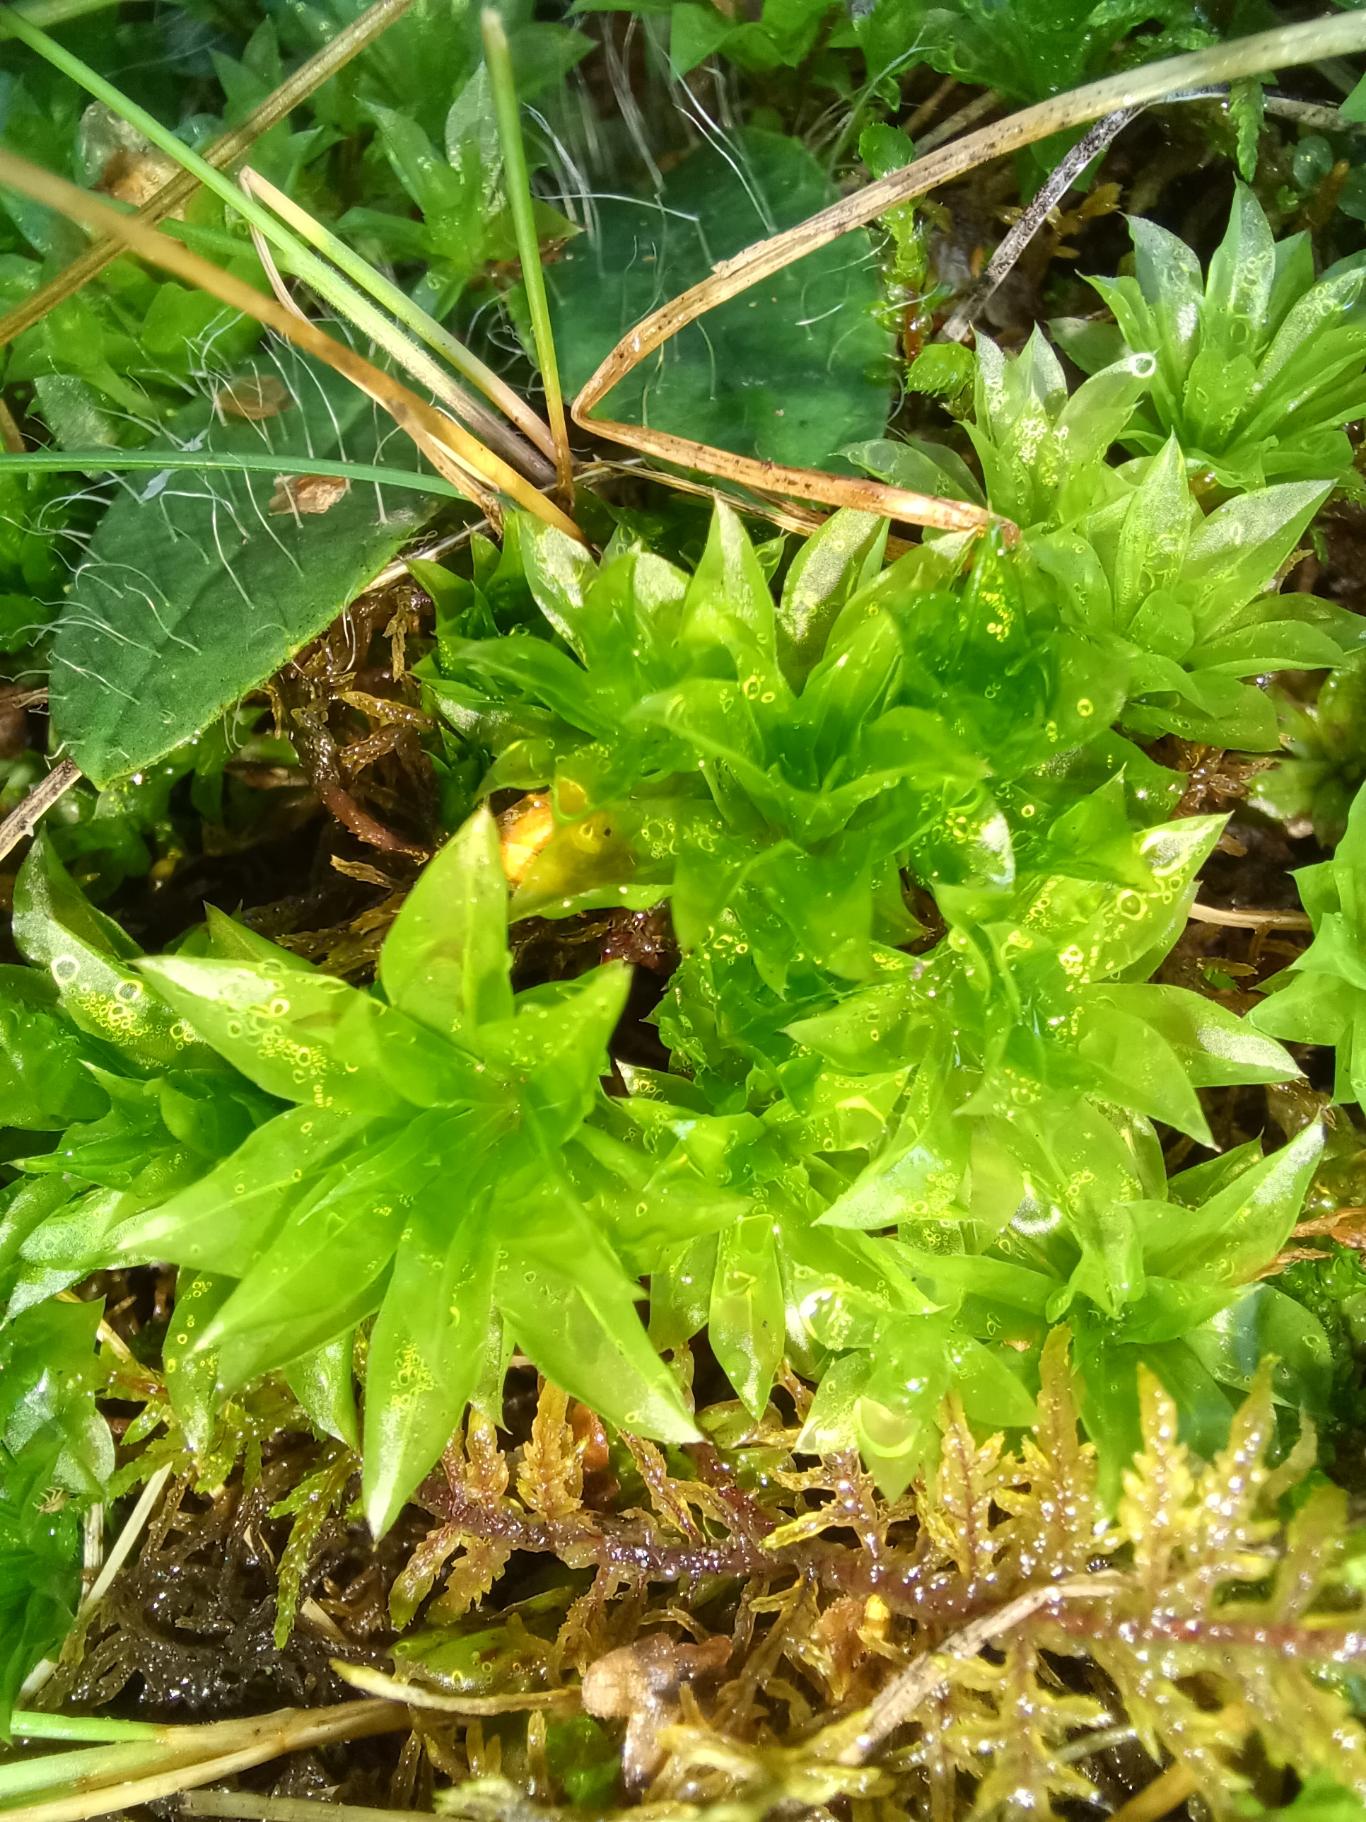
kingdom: Plantae
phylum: Bryophyta
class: Bryopsida
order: Bryales
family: Bryaceae
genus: Rhodobryum
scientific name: Rhodobryum roseum
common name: Stor rosetmos
